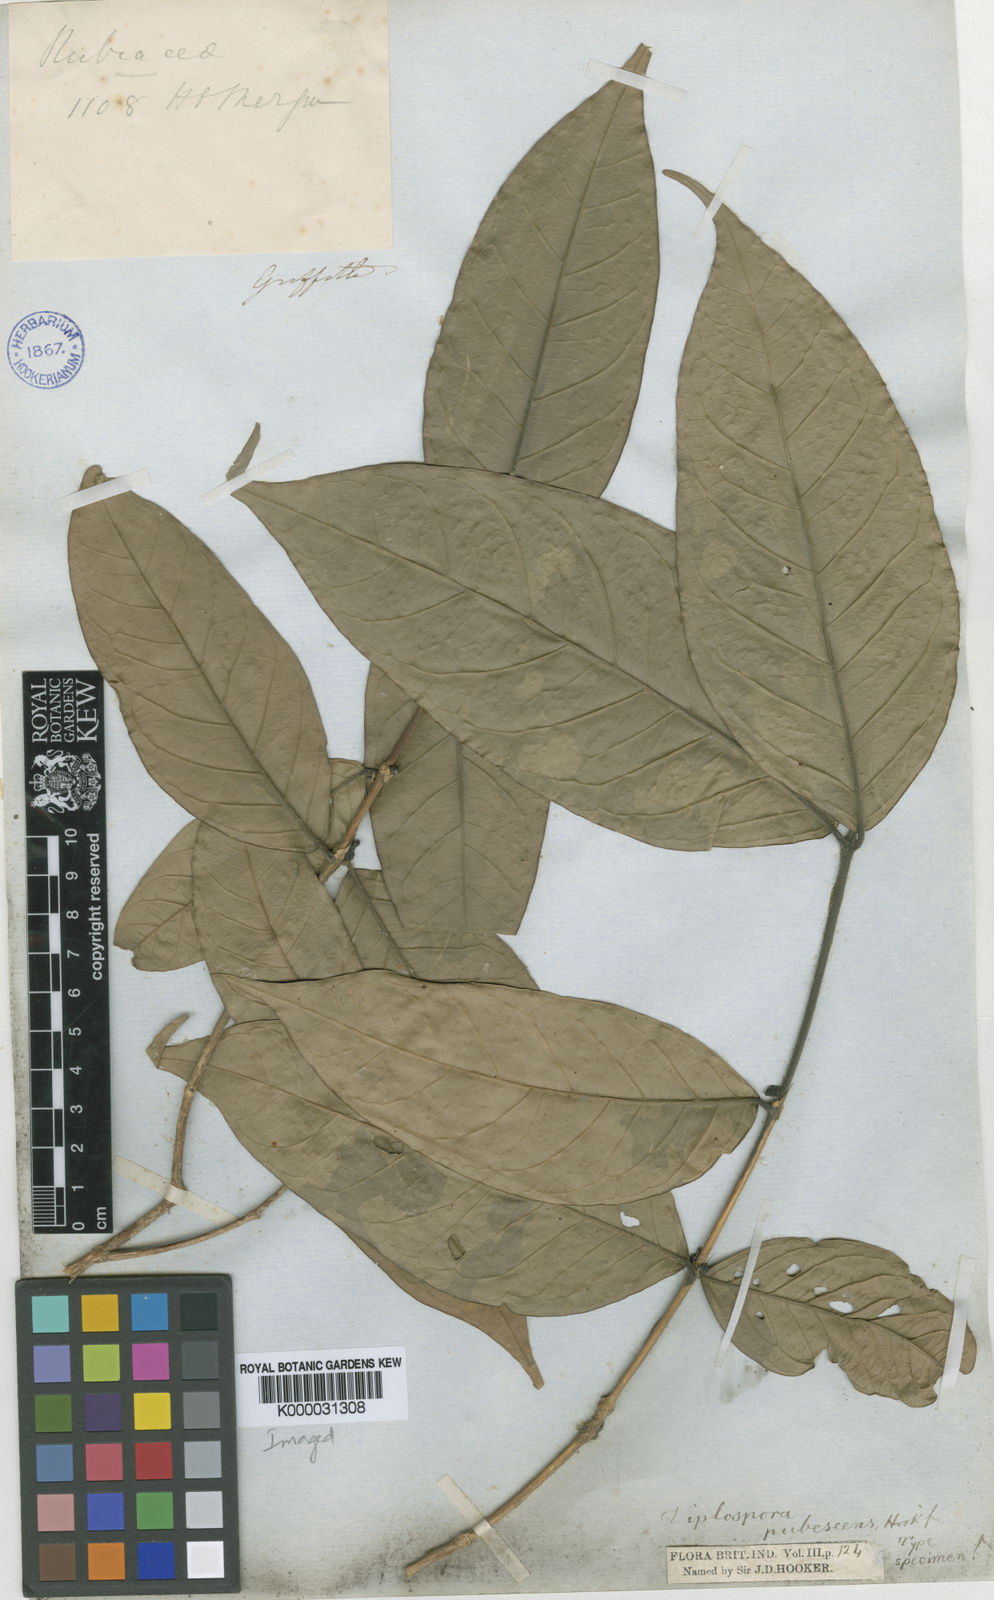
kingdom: Plantae
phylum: Tracheophyta
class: Magnoliopsida
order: Gentianales
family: Rubiaceae
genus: Diplospora
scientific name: Diplospora pubescens
